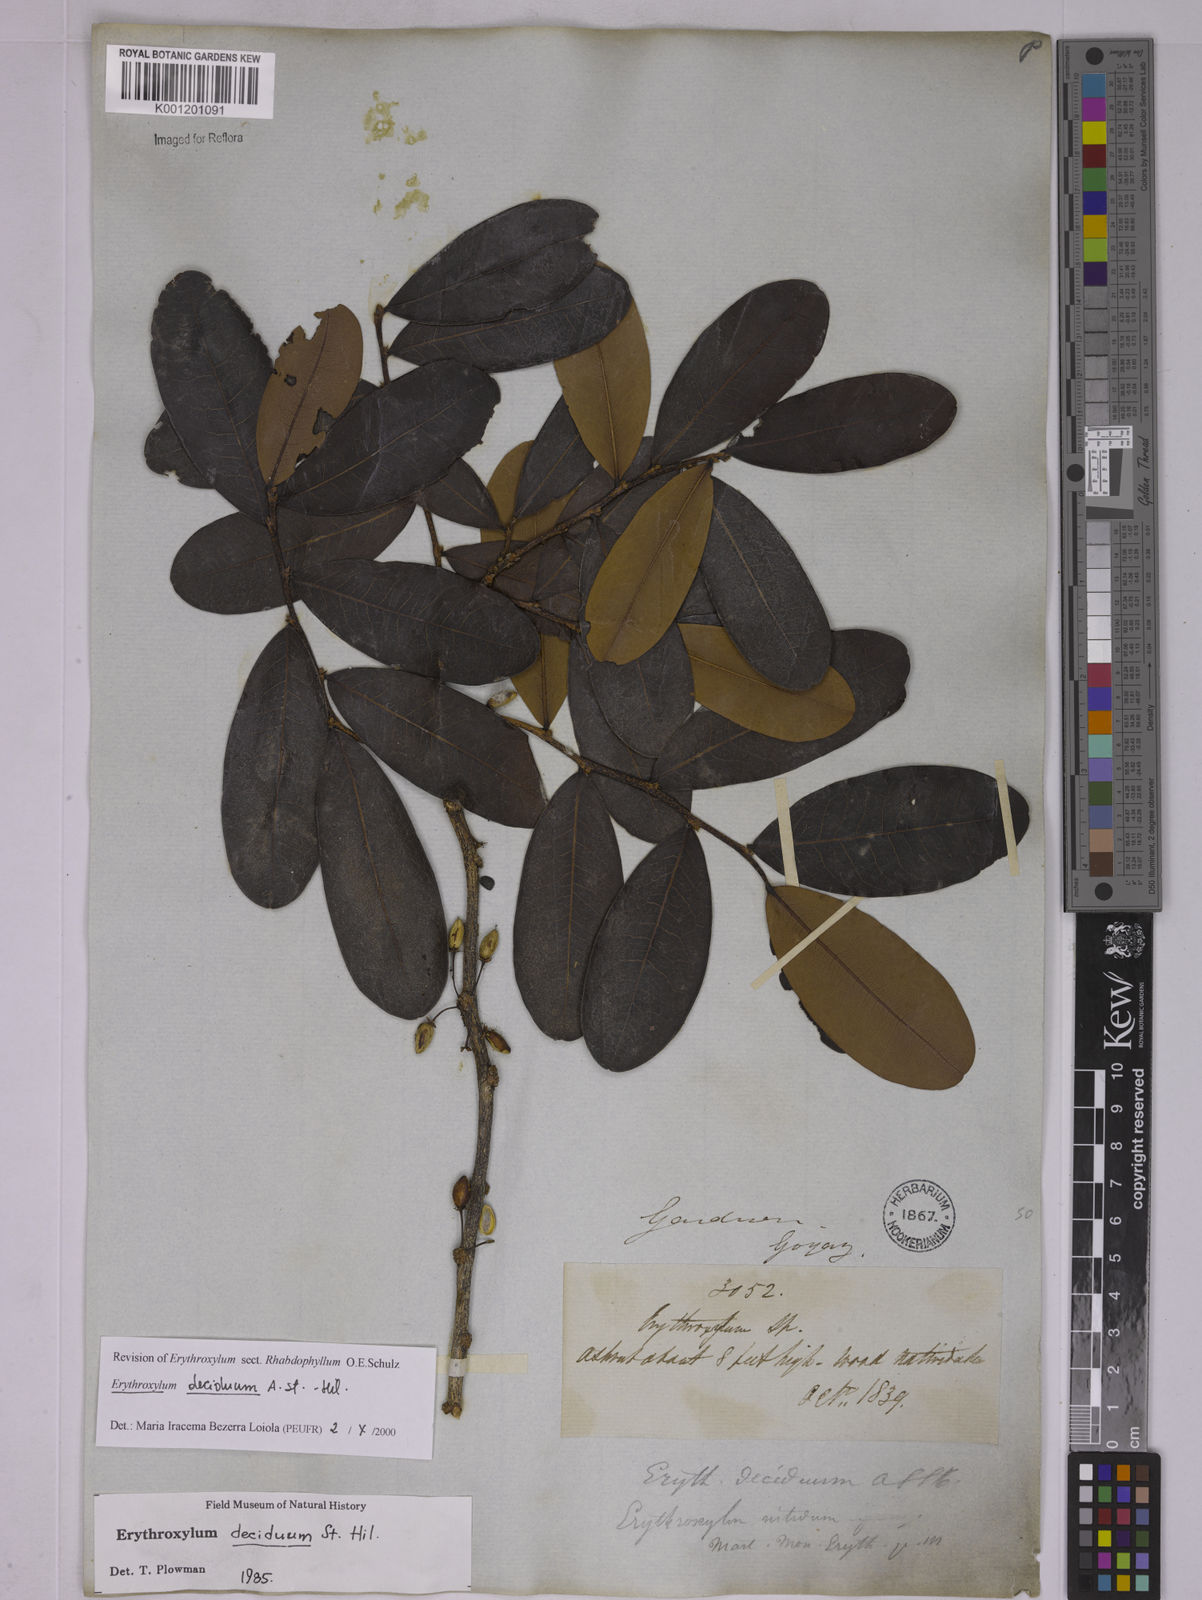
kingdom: Plantae
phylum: Tracheophyta
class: Magnoliopsida
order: Malpighiales
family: Erythroxylaceae
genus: Erythroxylum
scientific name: Erythroxylum deciduum
